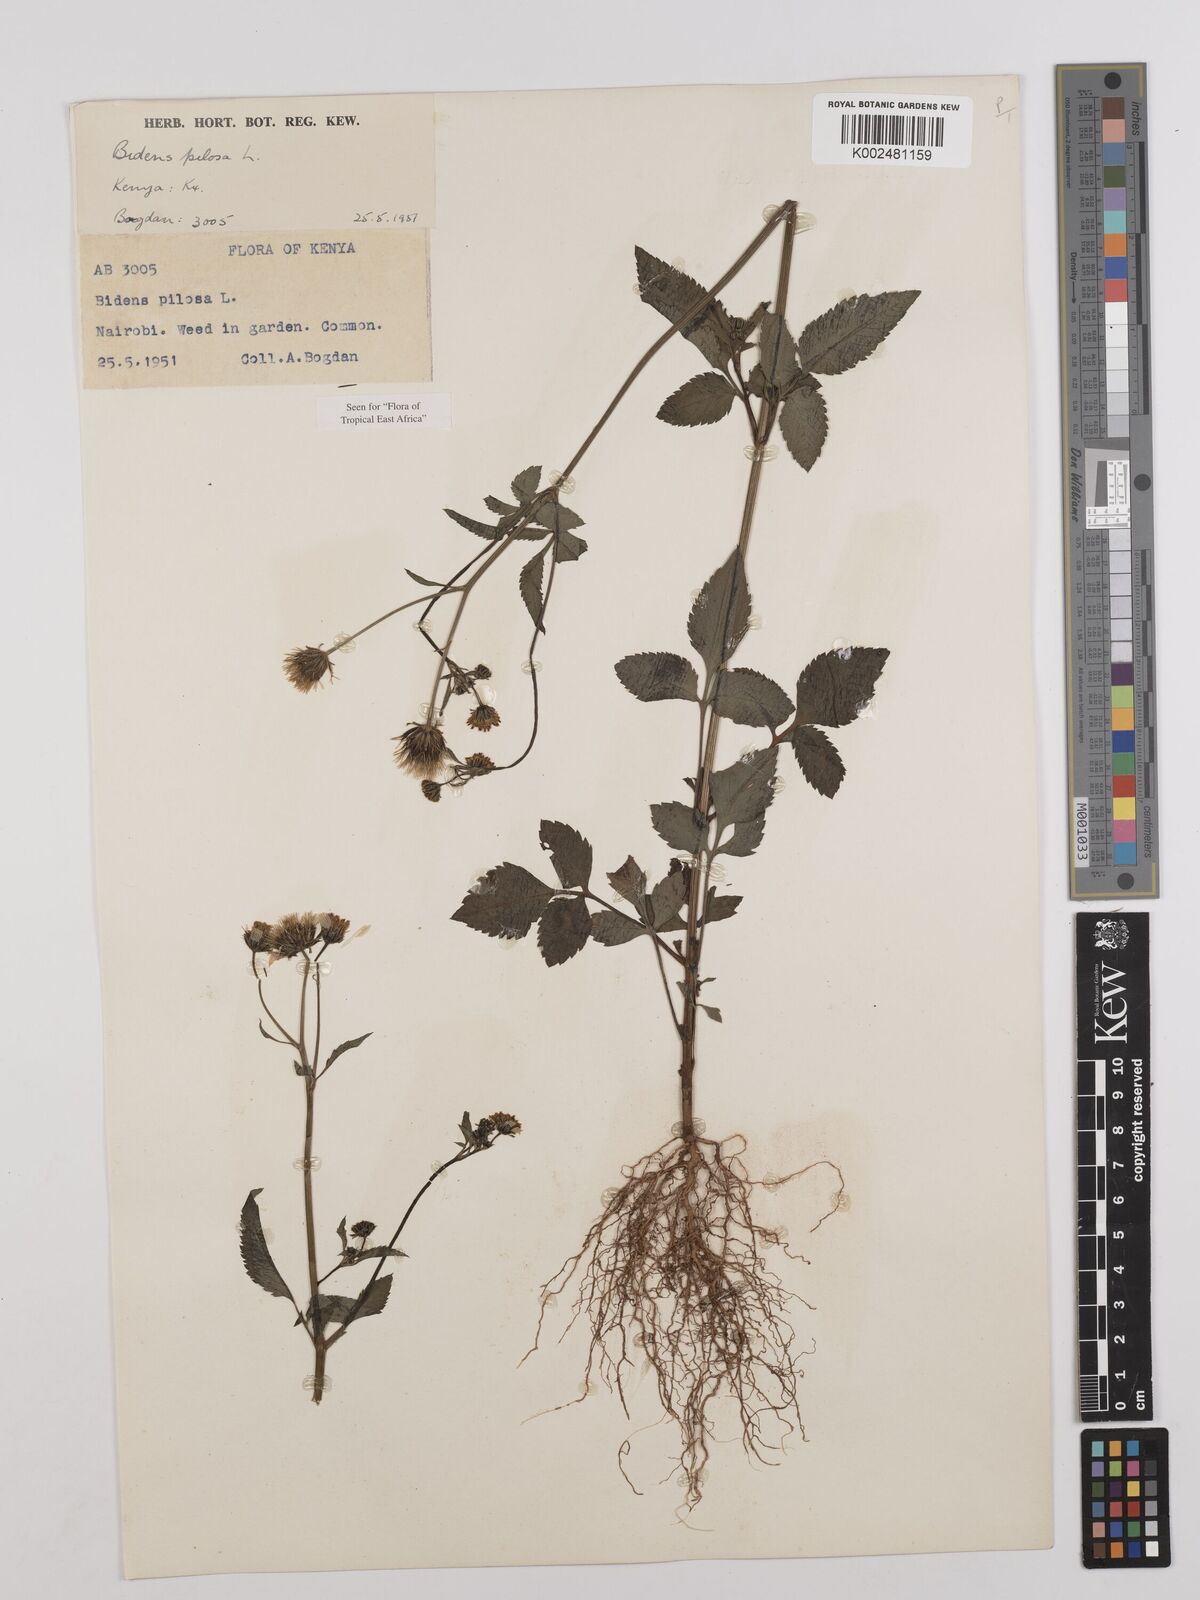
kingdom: Plantae
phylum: Tracheophyta
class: Magnoliopsida
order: Asterales
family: Asteraceae
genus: Bidens
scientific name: Bidens pilosa
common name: Black-jack
